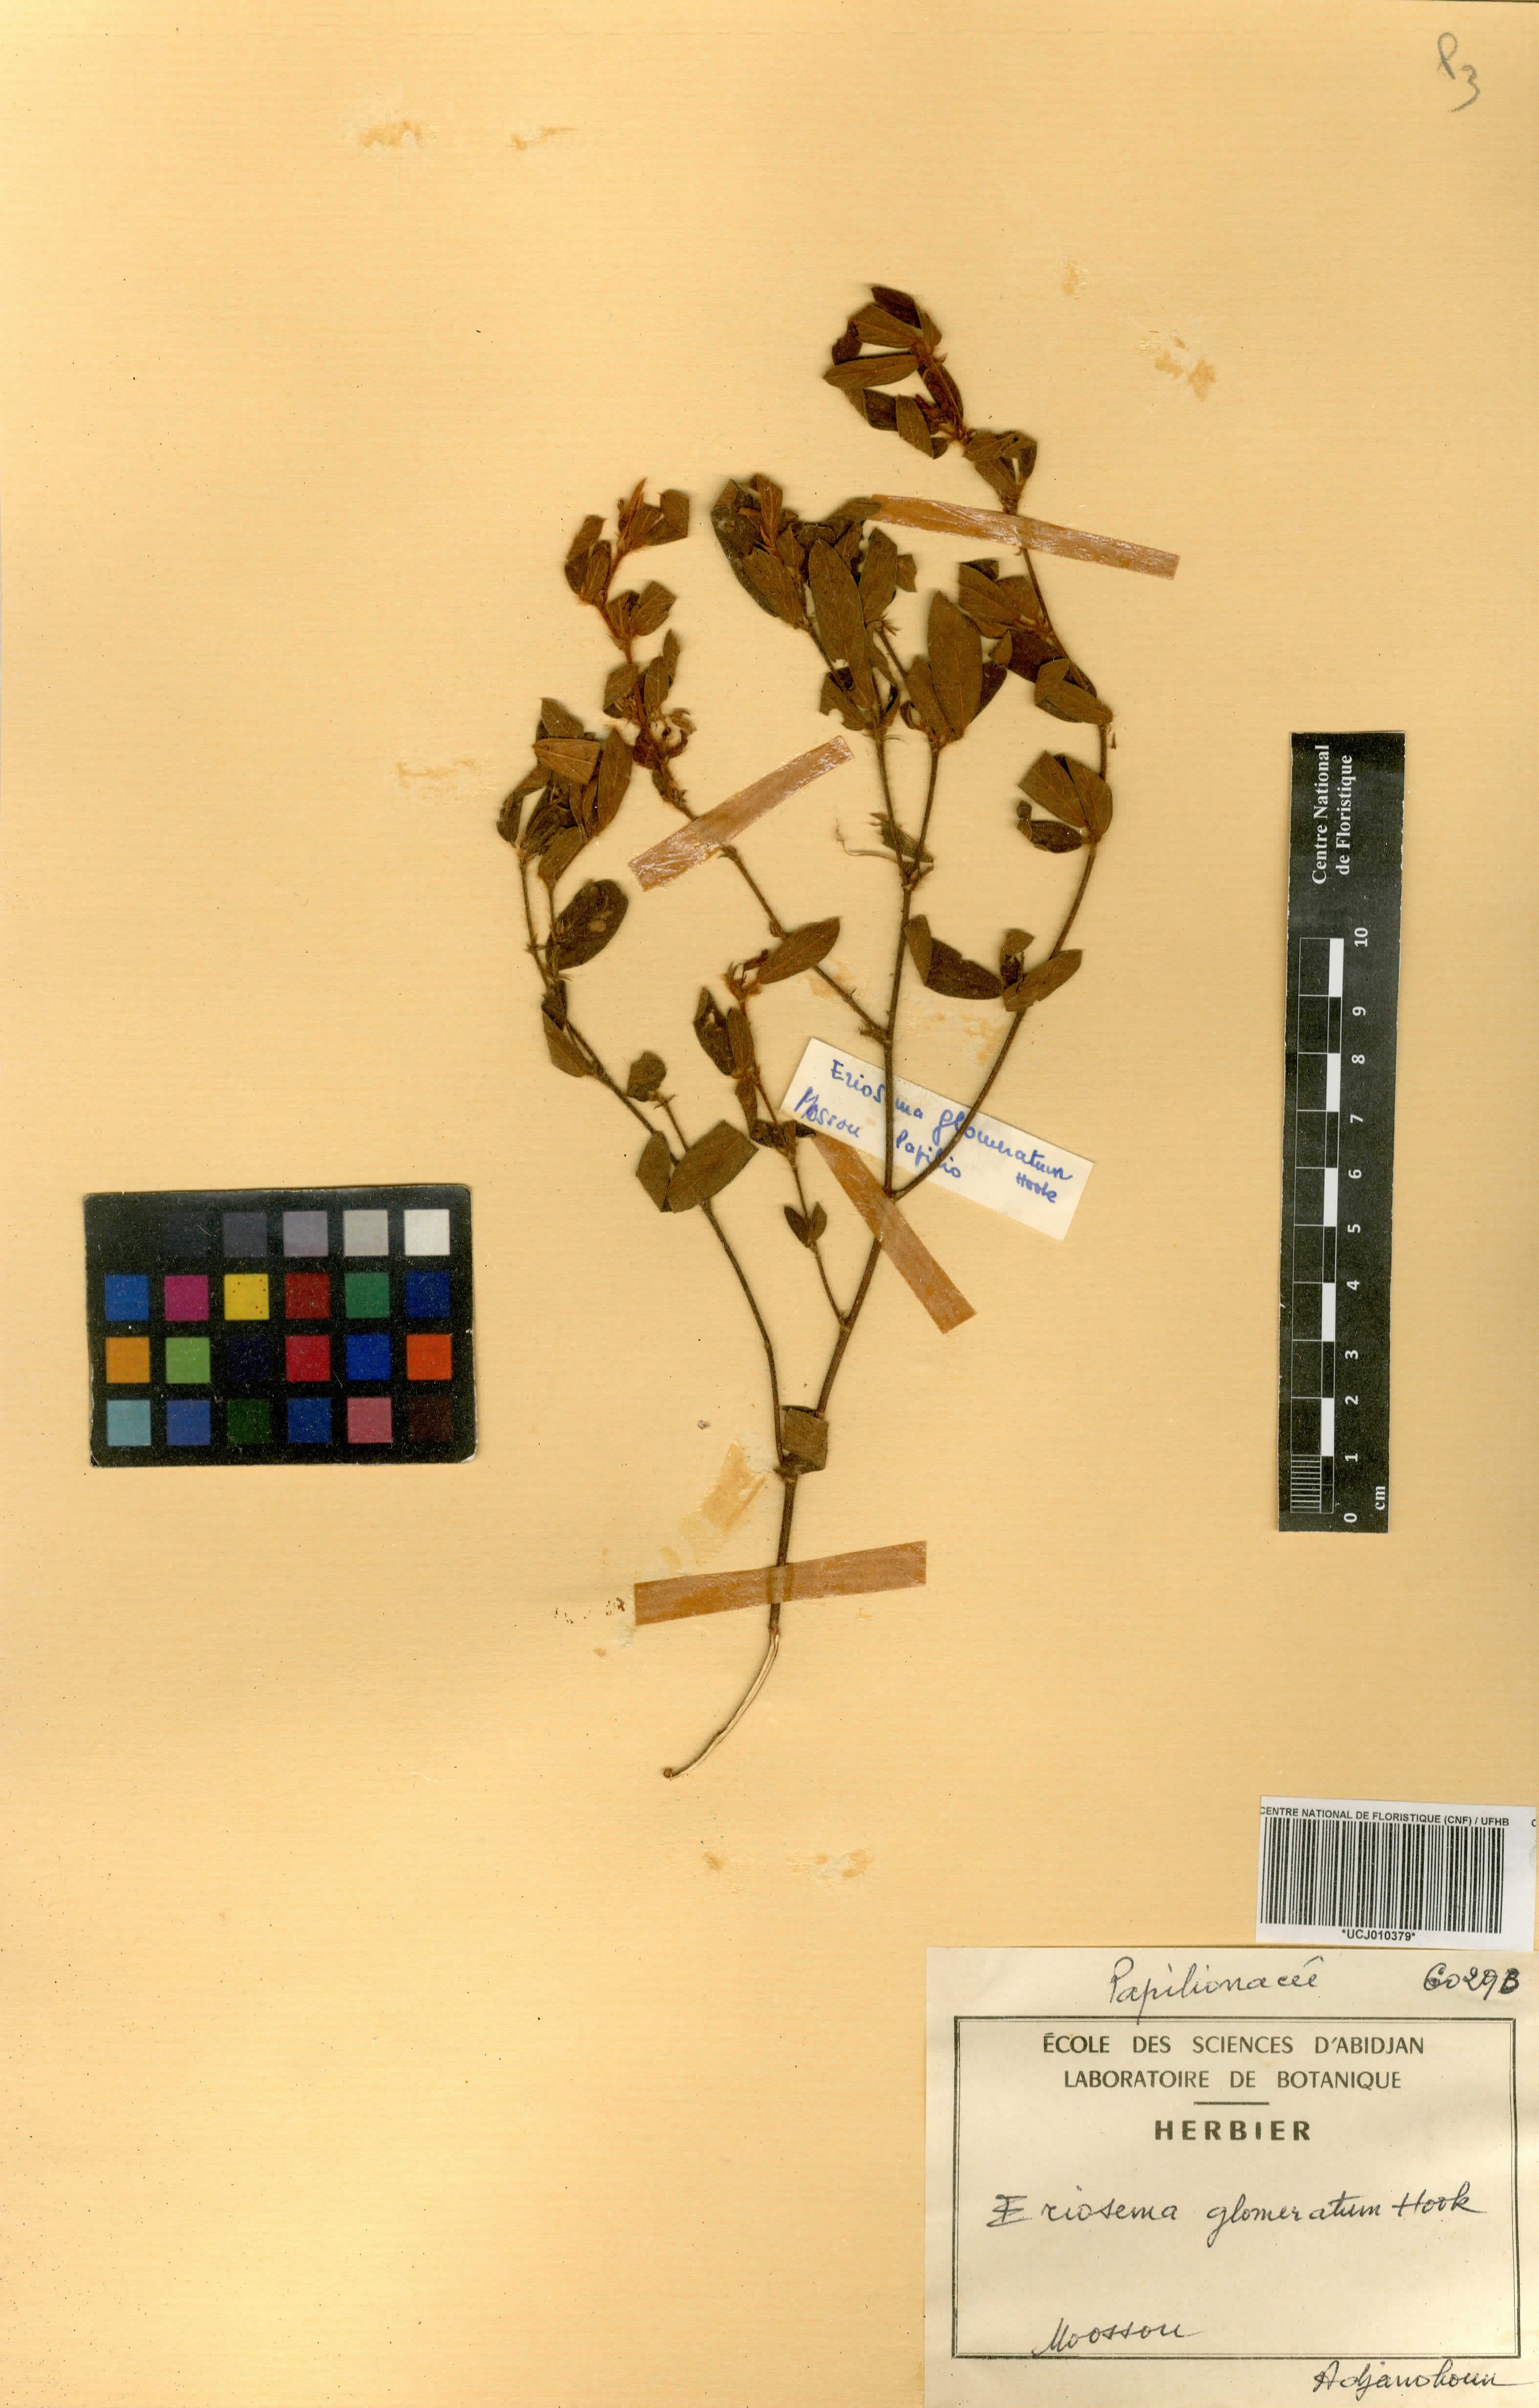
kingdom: Plantae
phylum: Tracheophyta
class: Magnoliopsida
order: Fabales
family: Fabaceae
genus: Eriosema
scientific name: Eriosema glomeratum
